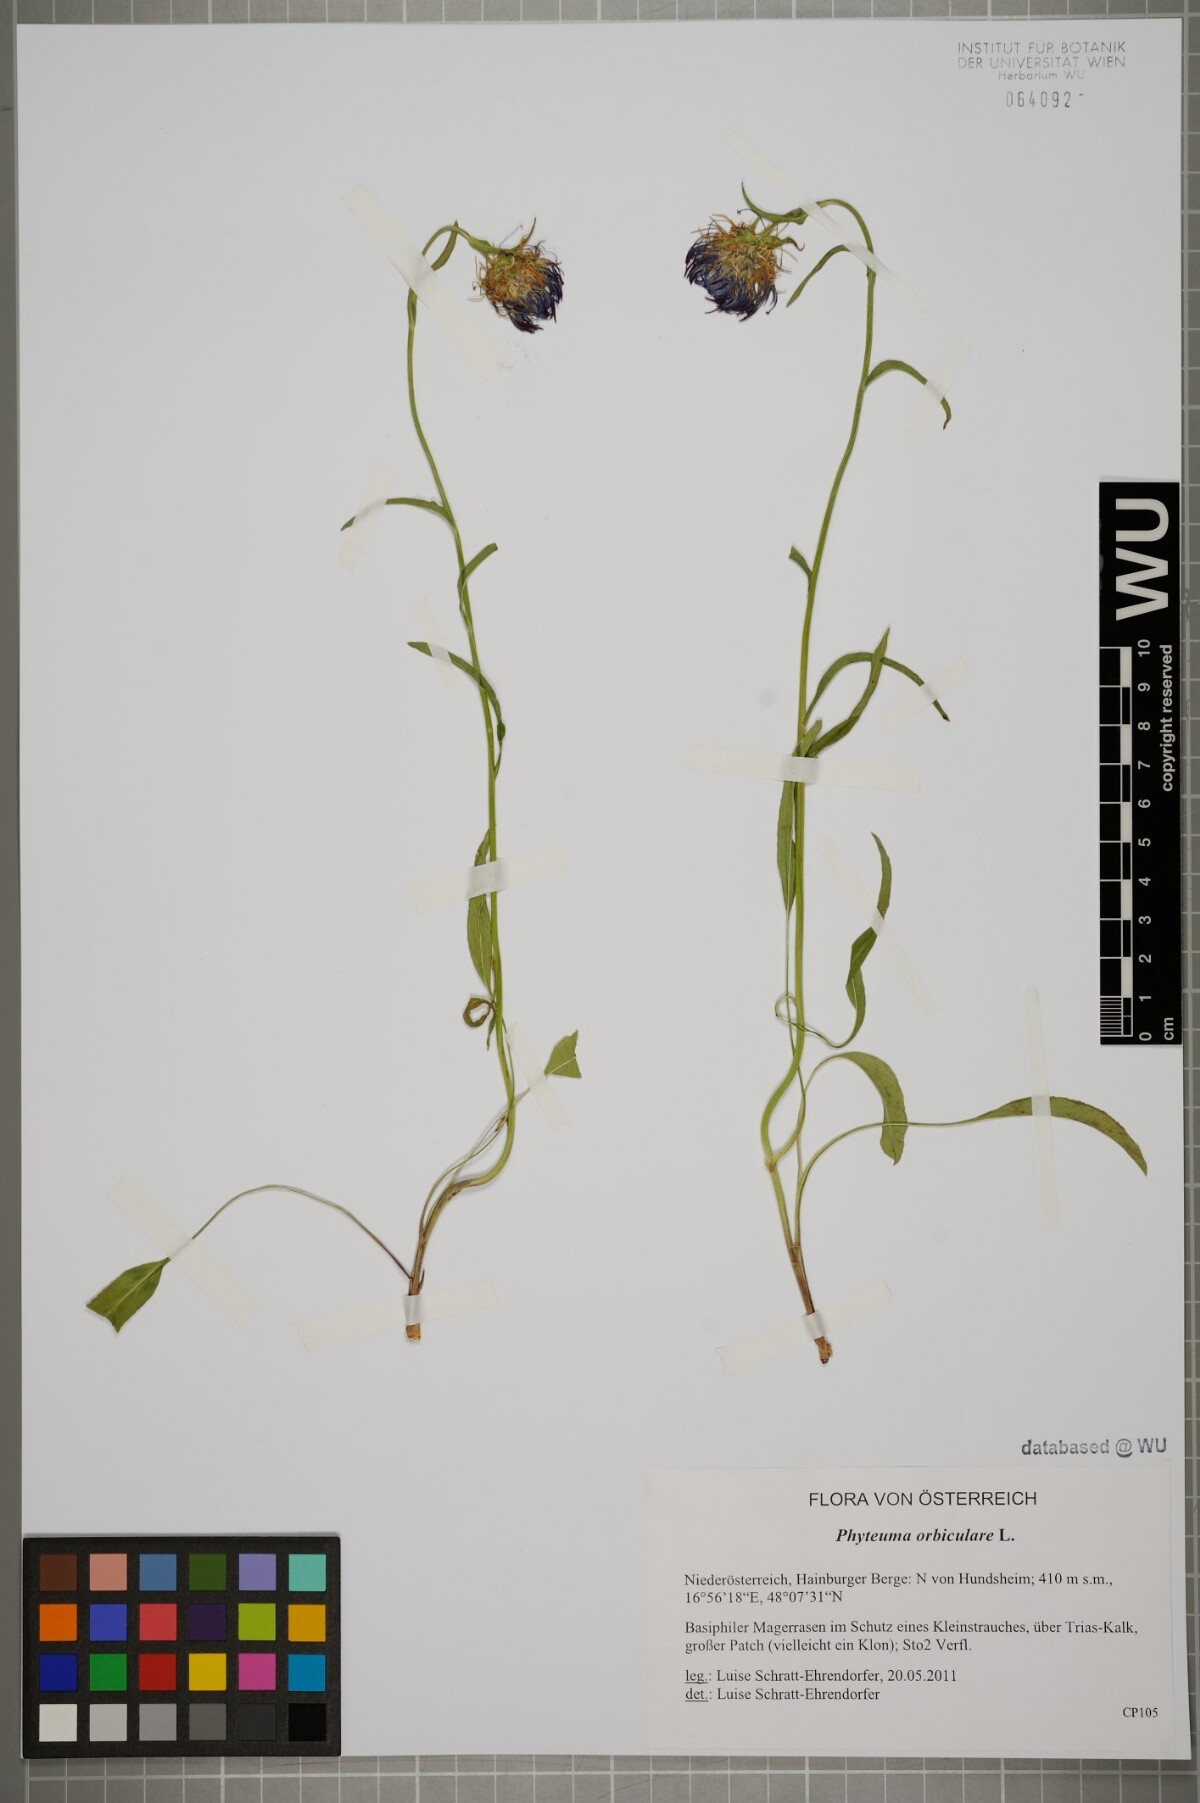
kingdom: Plantae
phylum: Tracheophyta
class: Magnoliopsida
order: Asterales
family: Campanulaceae
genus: Phyteuma
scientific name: Phyteuma orbiculare
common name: Round-headed rampion
